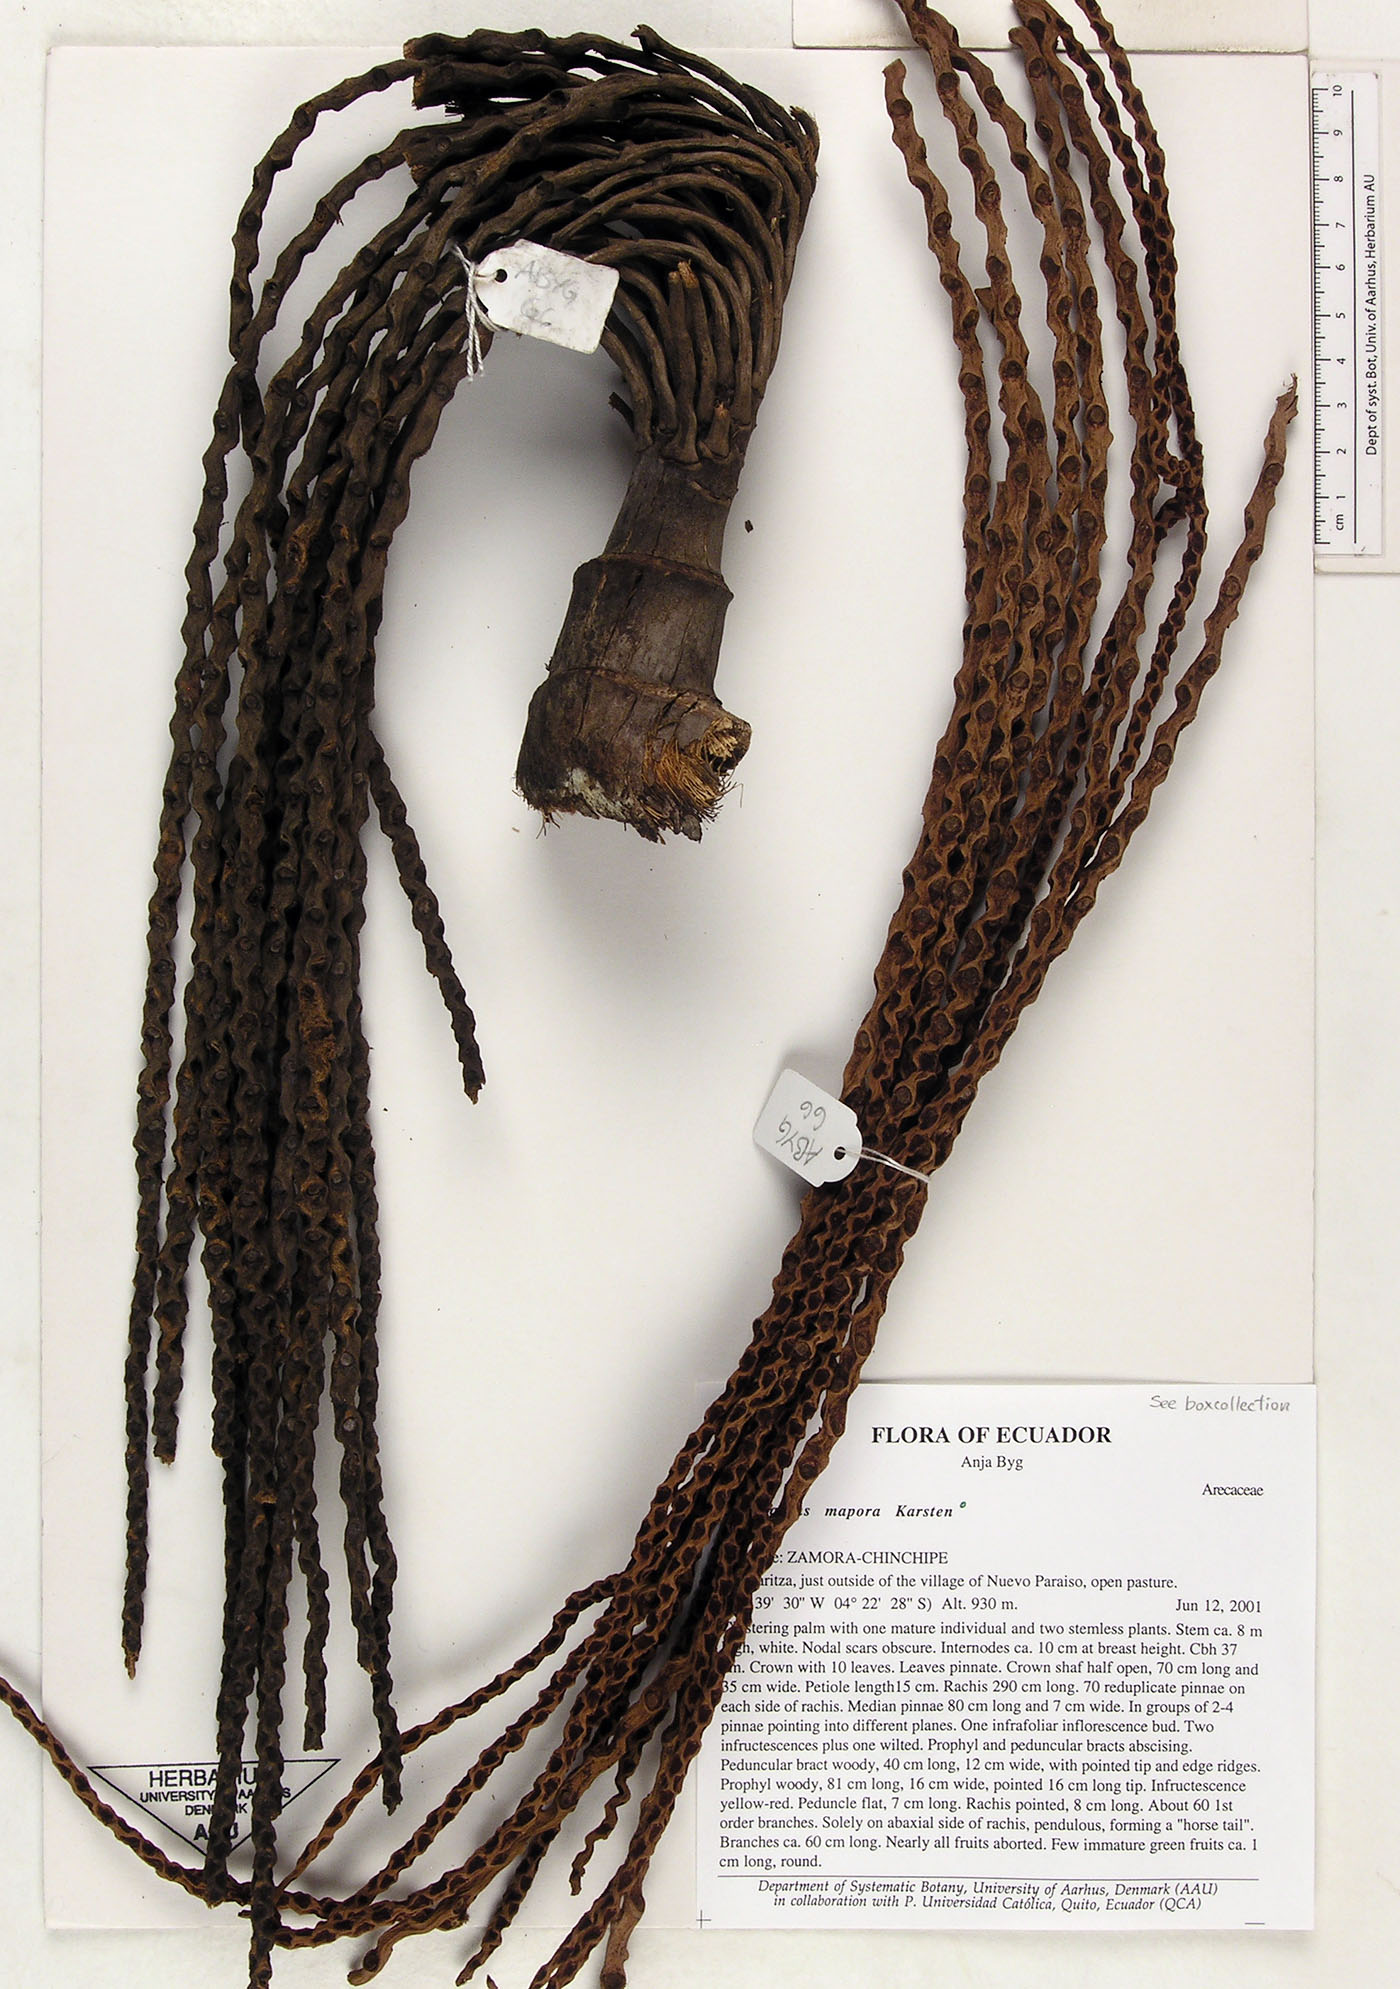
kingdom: Plantae
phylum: Tracheophyta
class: Liliopsida
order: Arecales
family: Arecaceae
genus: Oenocarpus
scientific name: Oenocarpus mapora
